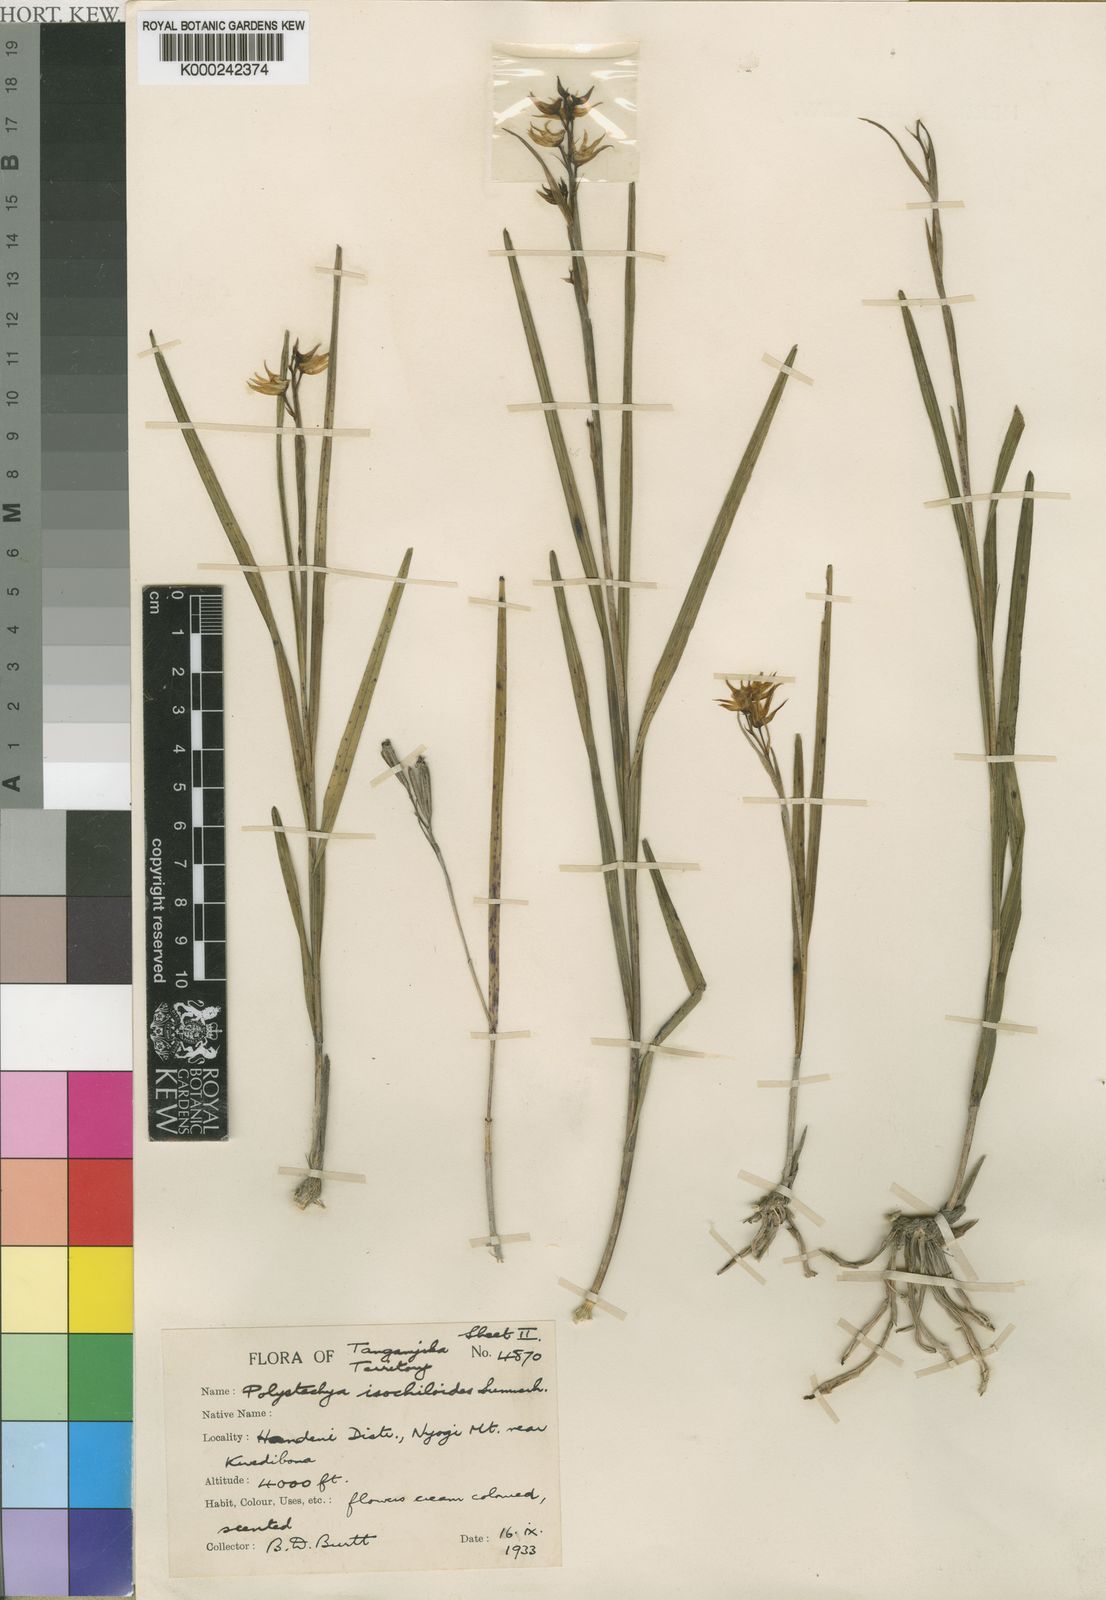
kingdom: Plantae
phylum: Tracheophyta
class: Liliopsida
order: Asparagales
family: Orchidaceae
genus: Polystachya
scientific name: Polystachya isochiloides
